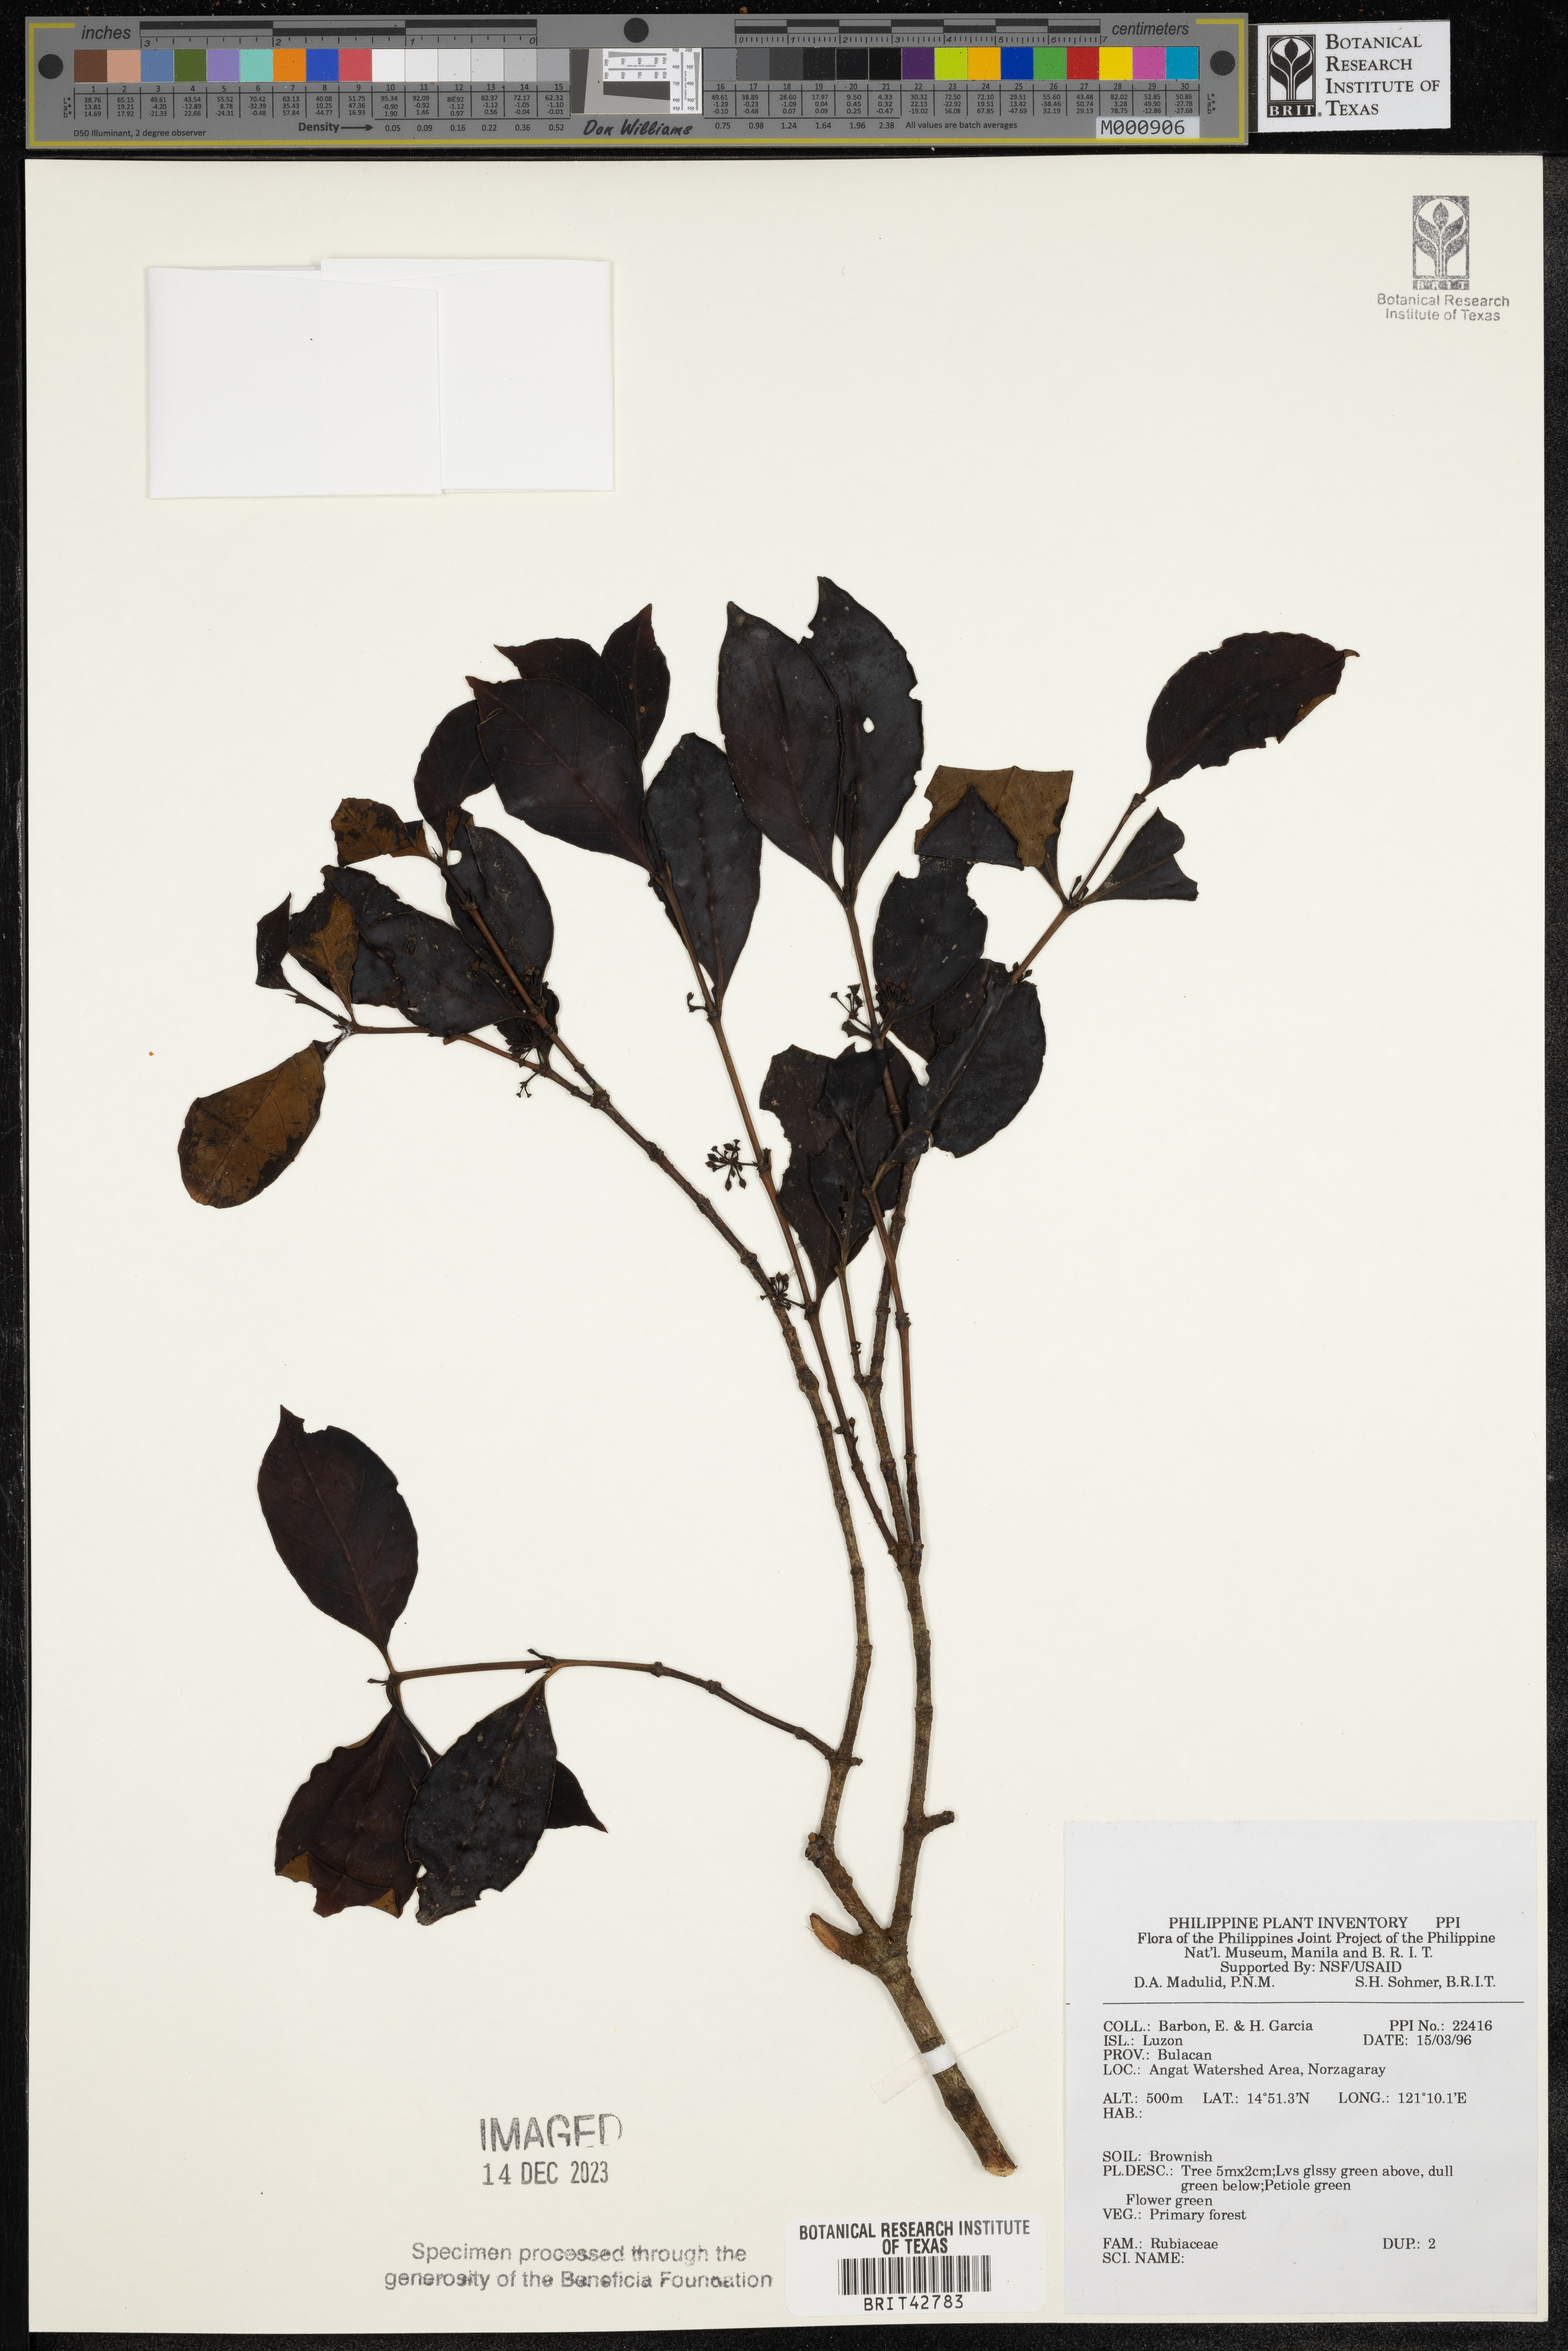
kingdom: Plantae
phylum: Tracheophyta
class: Magnoliopsida
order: Gentianales
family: Rubiaceae
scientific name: Rubiaceae
